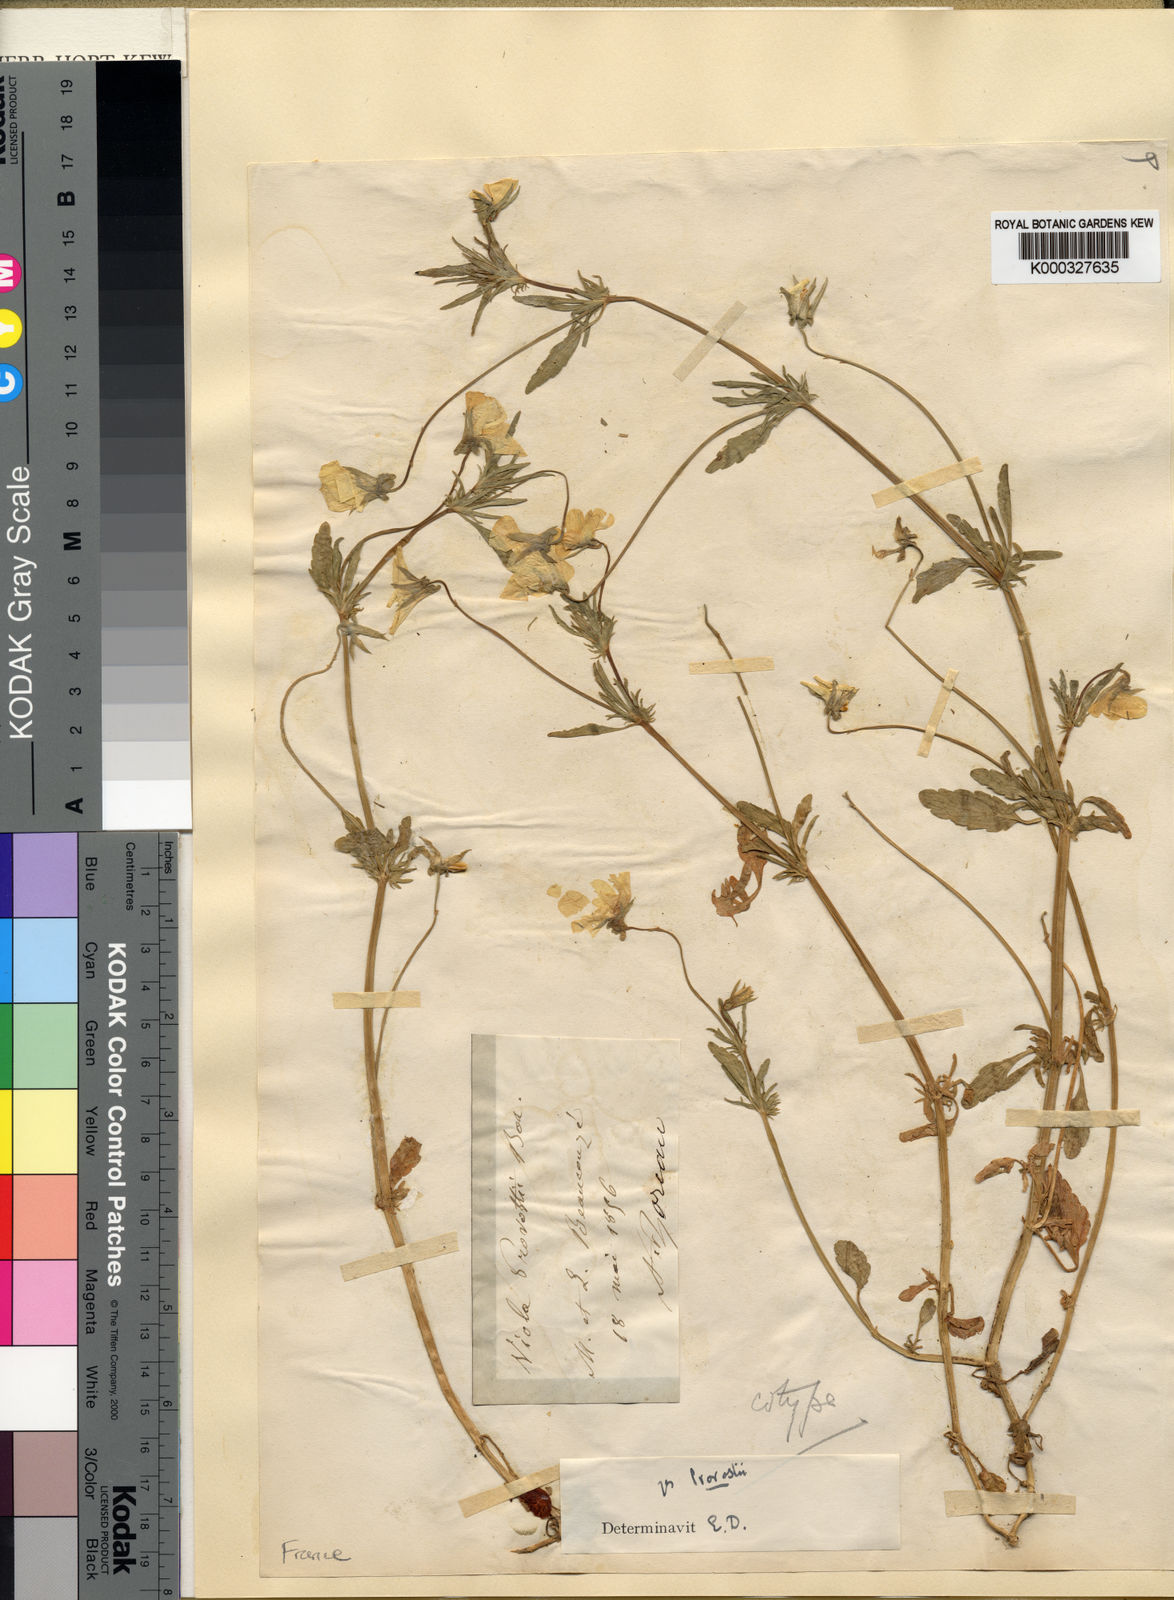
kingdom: Plantae
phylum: Tracheophyta
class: Magnoliopsida
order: Malpighiales
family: Violaceae
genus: Viola
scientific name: Viola tricolor
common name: Pansy
